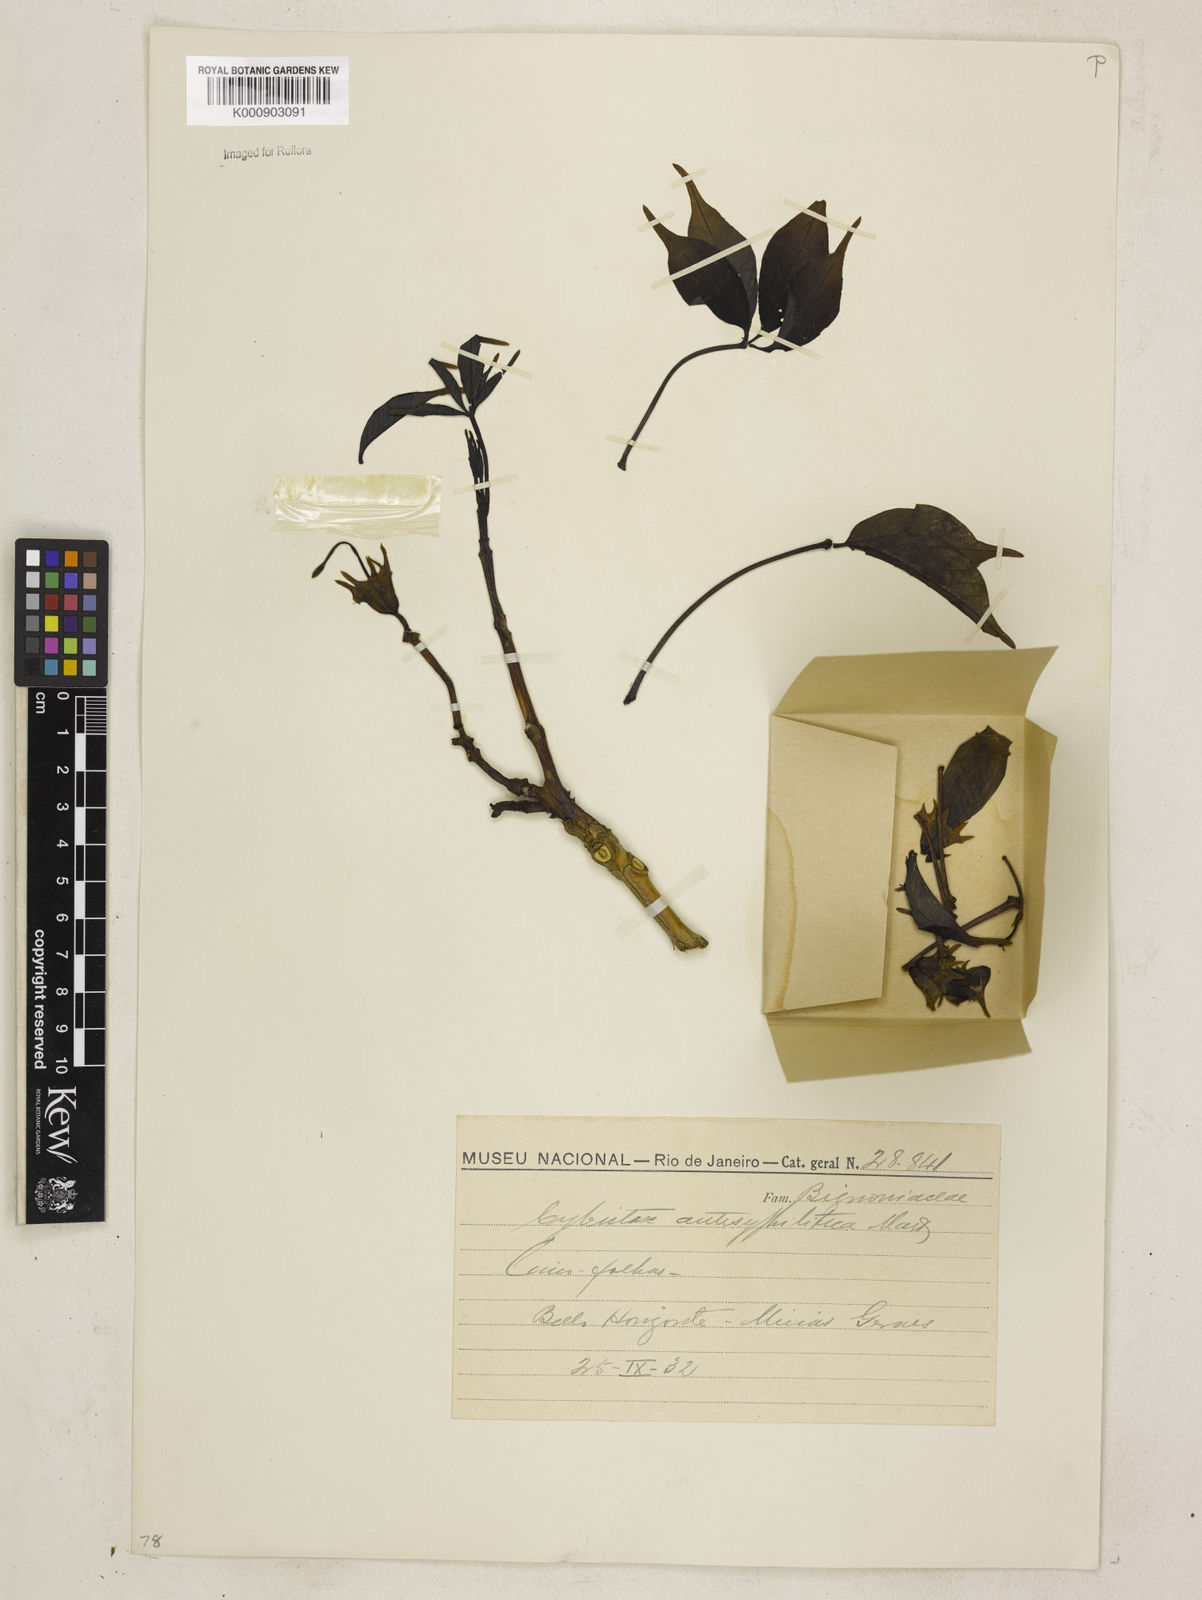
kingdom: Plantae
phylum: Tracheophyta
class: Magnoliopsida
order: Lamiales
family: Bignoniaceae
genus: Cybistax
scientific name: Cybistax antisyphilitica
